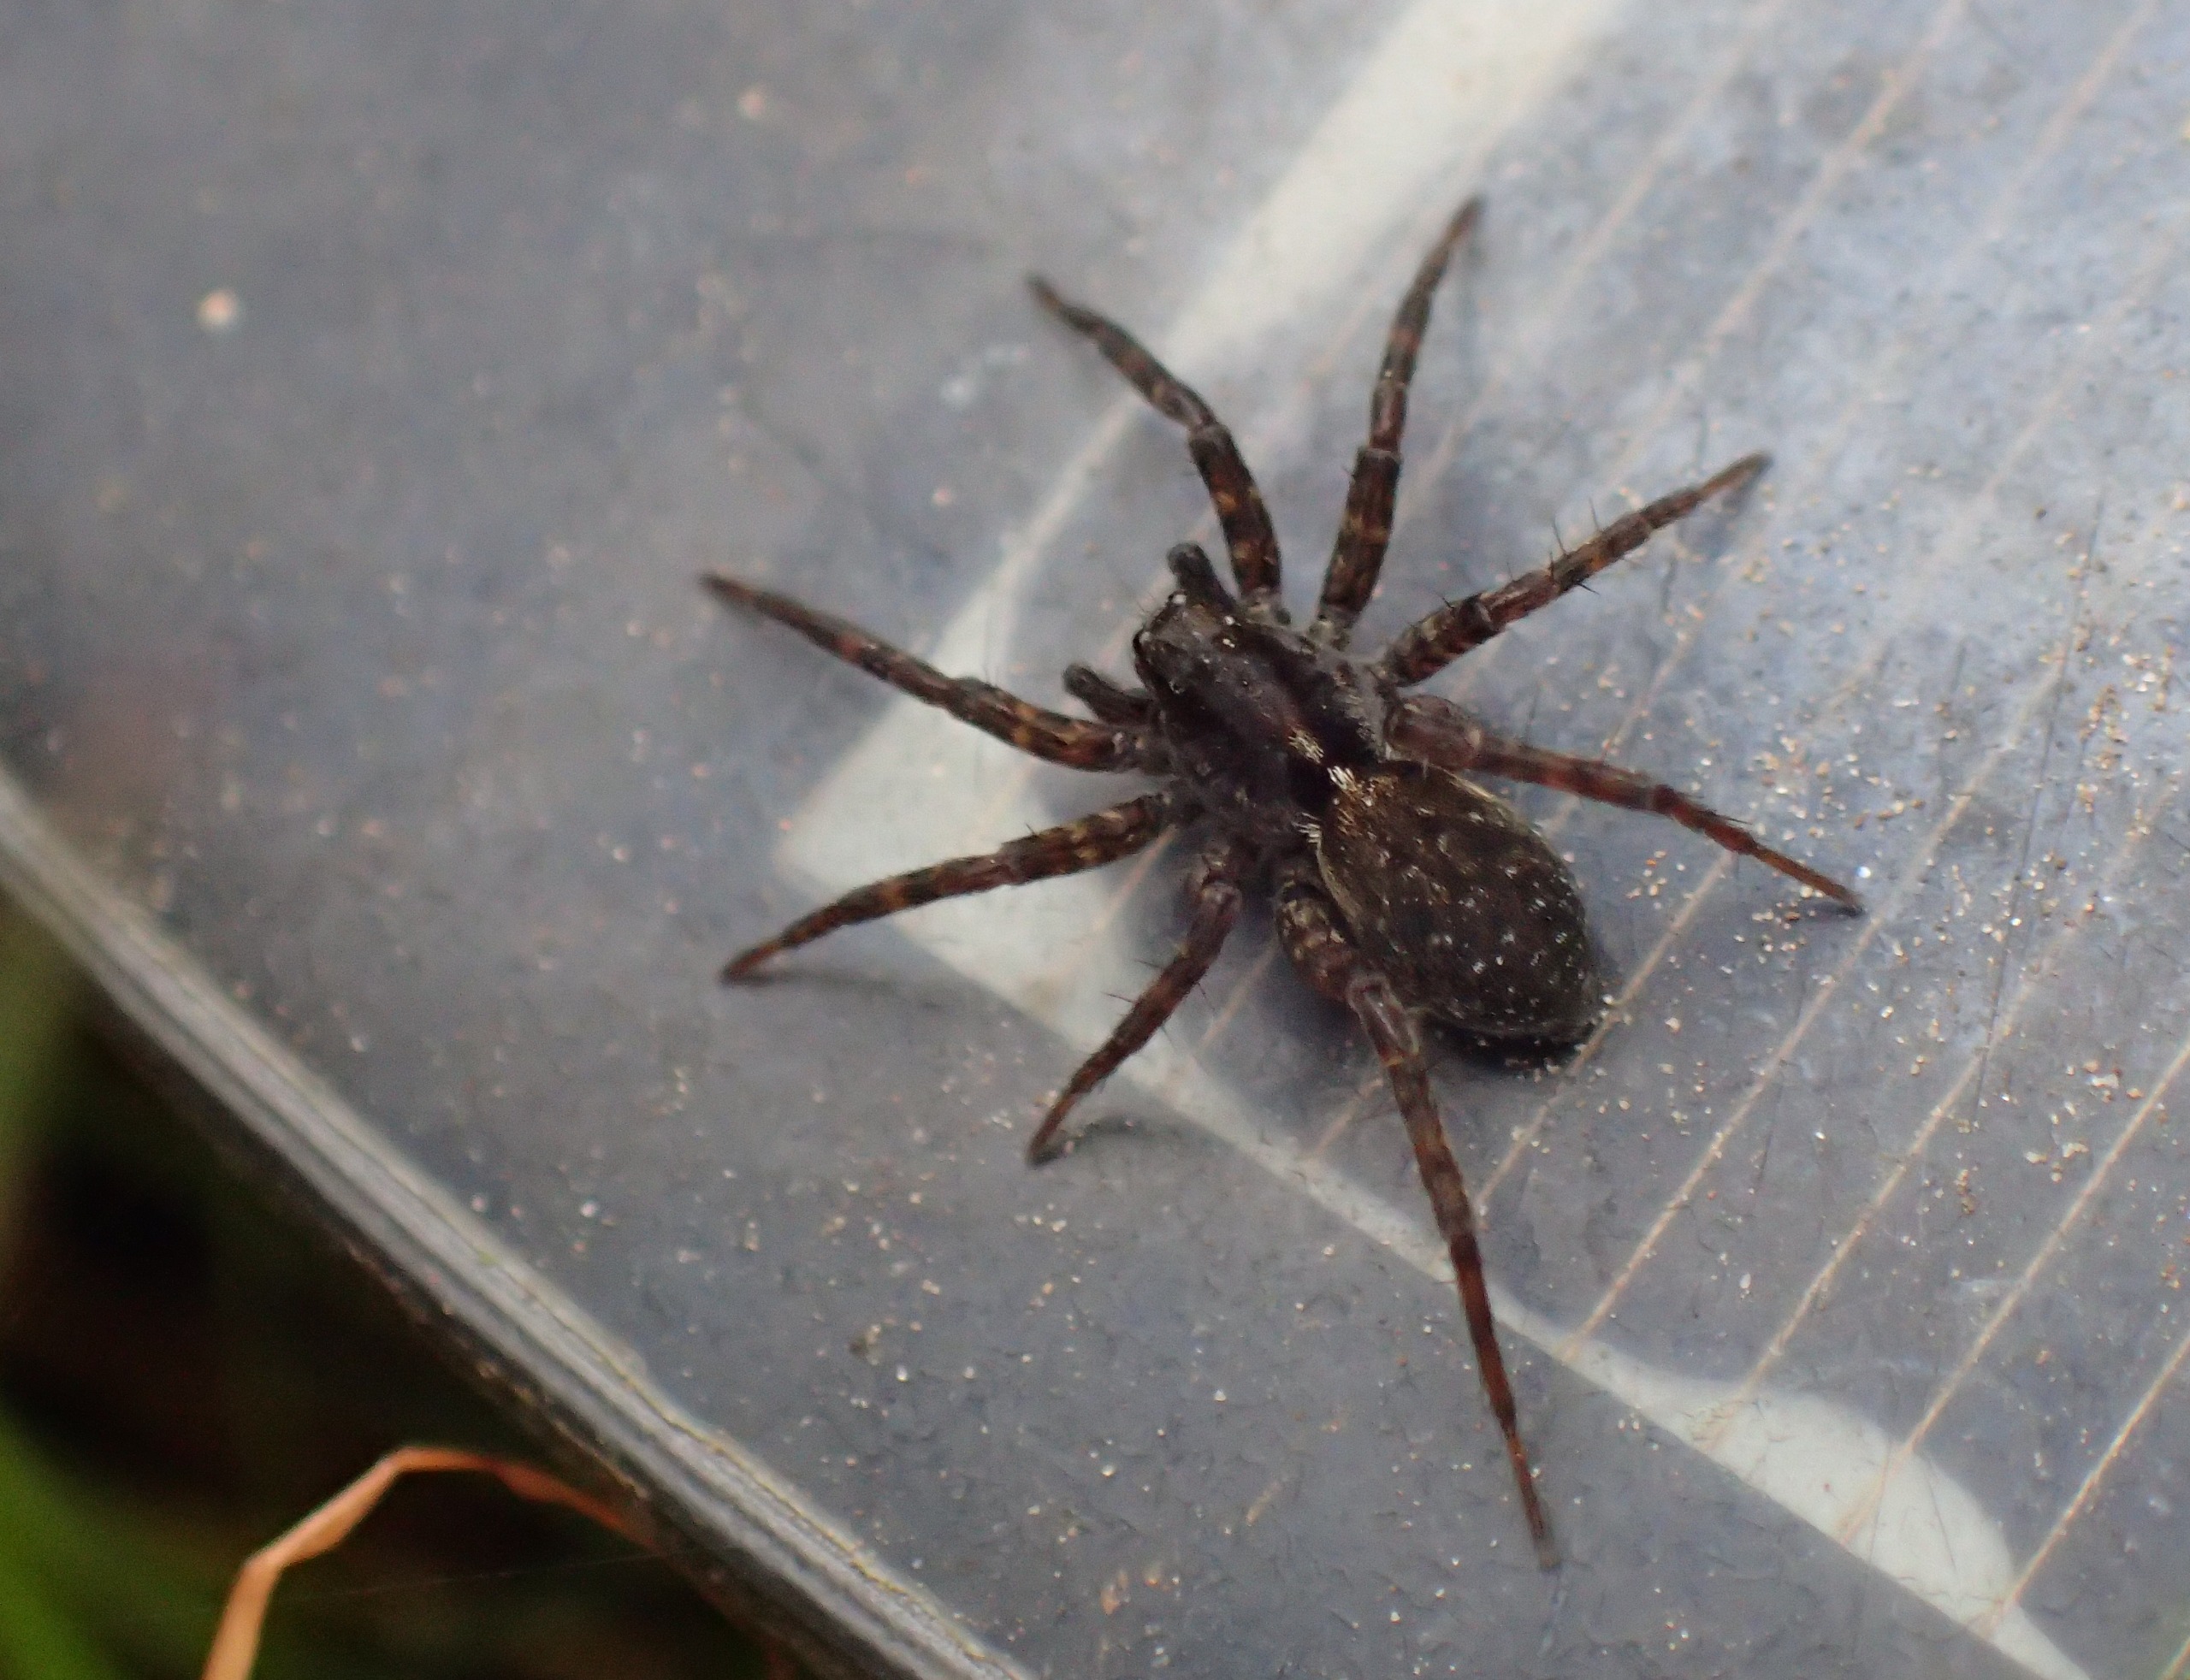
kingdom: Animalia
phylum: Arthropoda
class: Arachnida
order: Araneae
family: Lycosidae
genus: Pardosa
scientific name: Pardosa prativaga
